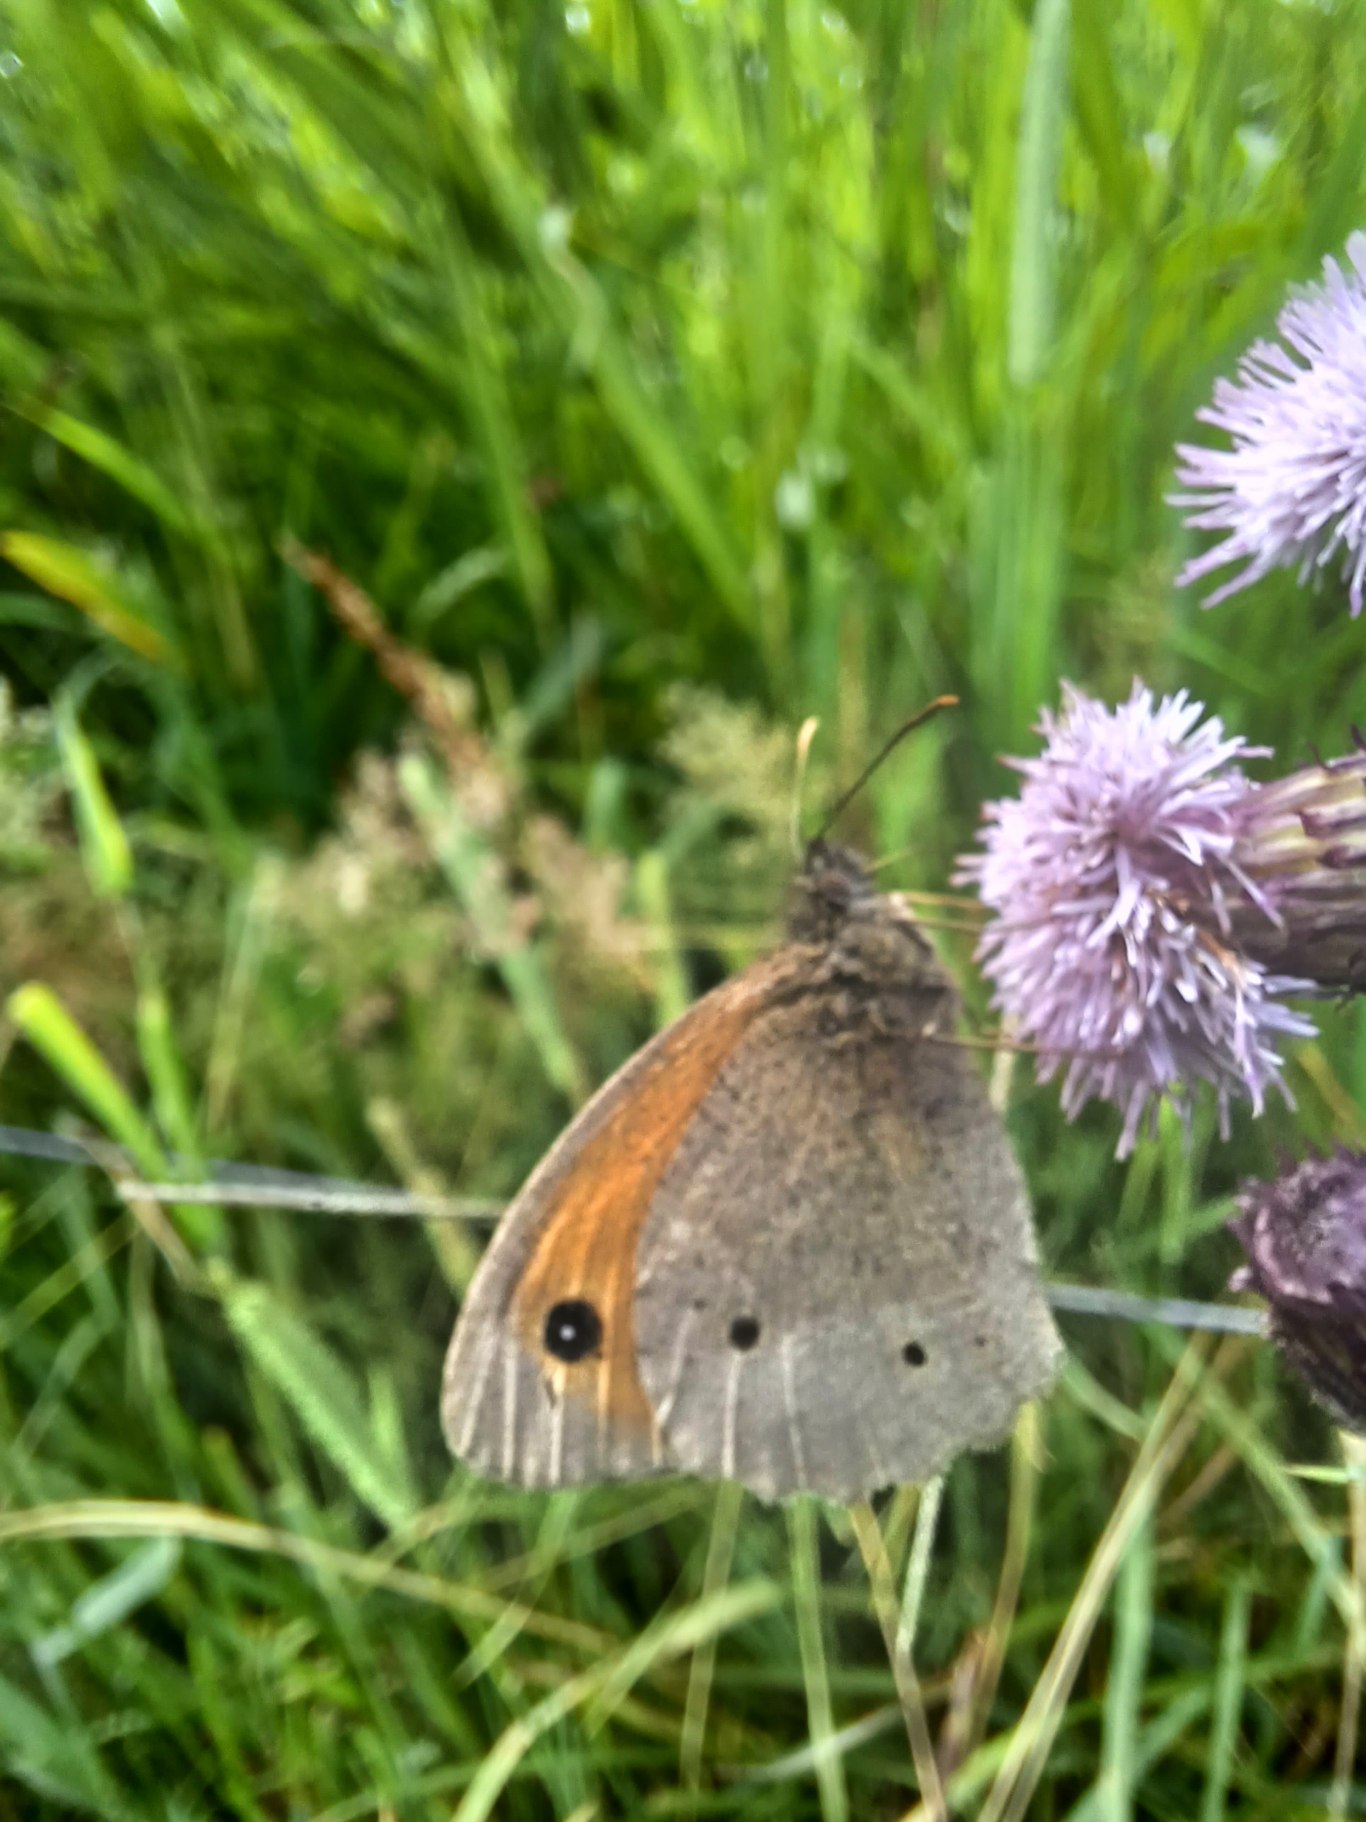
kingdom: Animalia
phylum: Arthropoda
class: Insecta
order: Lepidoptera
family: Nymphalidae
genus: Maniola
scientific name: Maniola jurtina
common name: Græsrandøje
